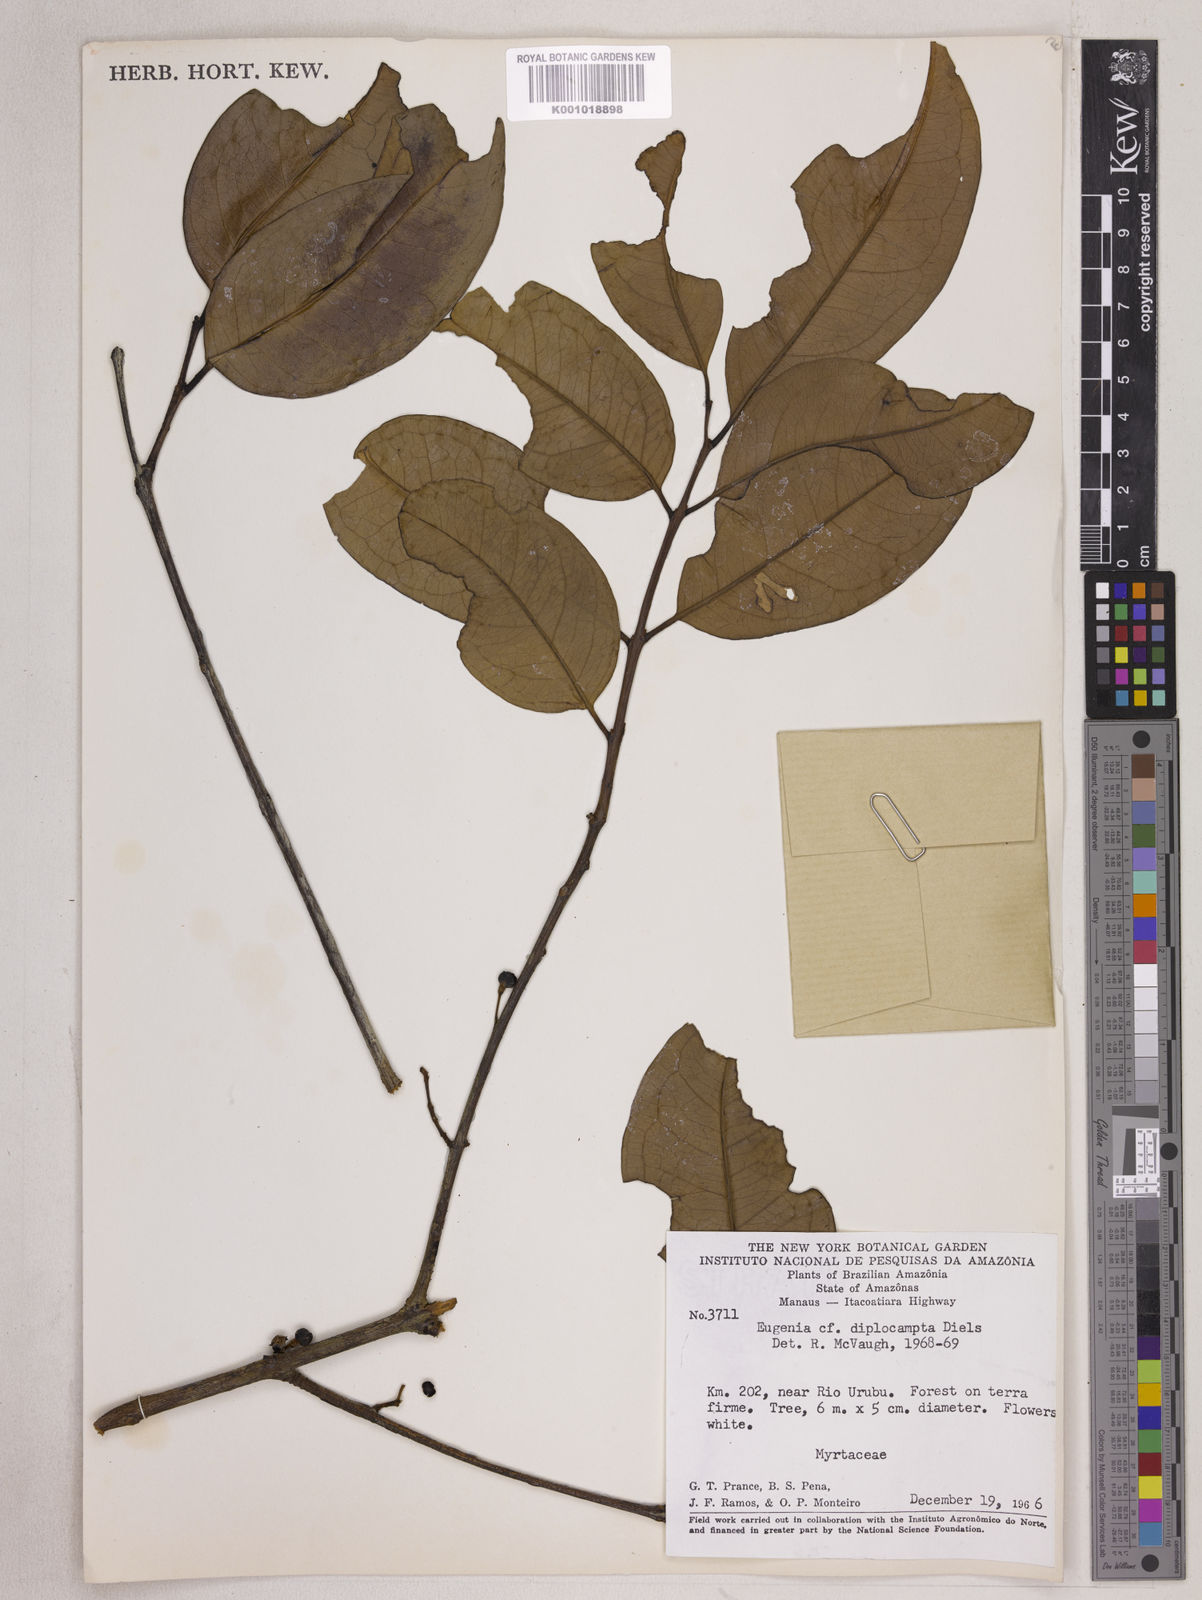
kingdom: Plantae
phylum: Tracheophyta
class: Magnoliopsida
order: Myrtales
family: Myrtaceae
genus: Eugenia
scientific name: Eugenia joseramosii
